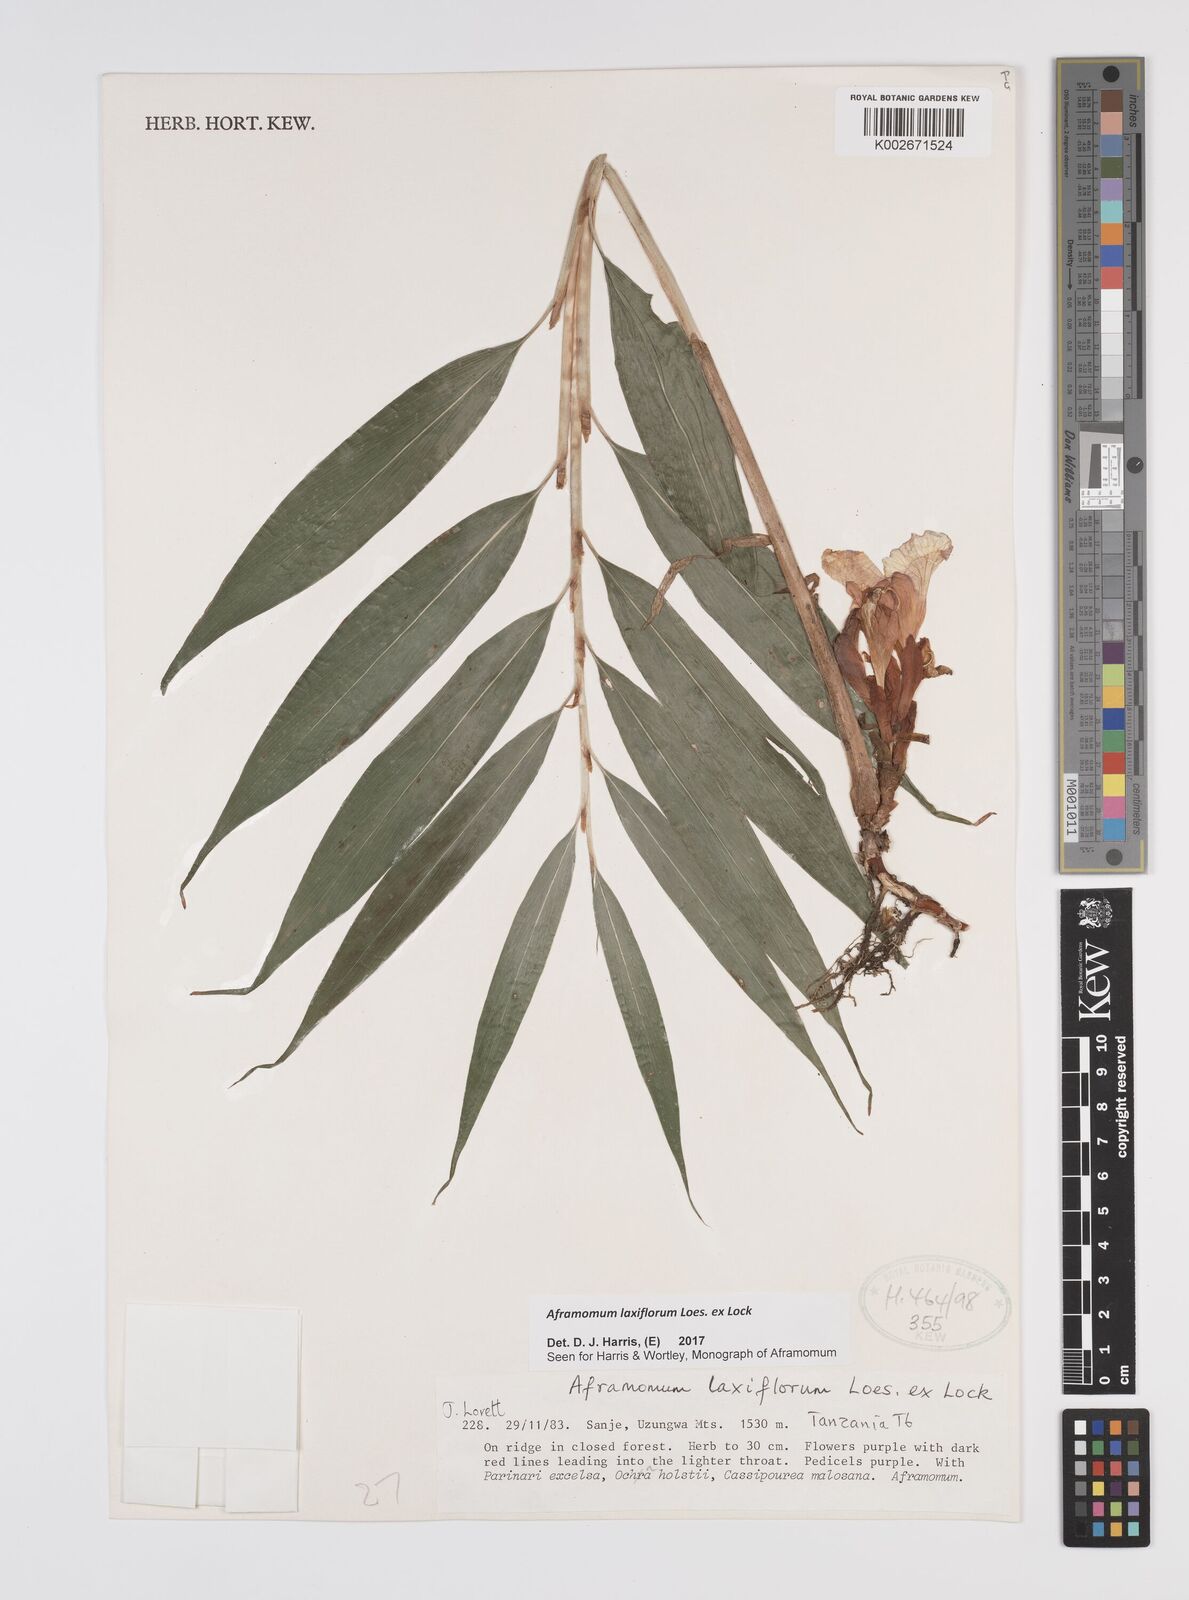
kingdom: Plantae
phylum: Tracheophyta
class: Liliopsida
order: Zingiberales
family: Zingiberaceae
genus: Aframomum
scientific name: Aframomum laxiflorum
